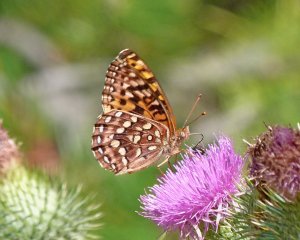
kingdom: Animalia
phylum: Arthropoda
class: Insecta
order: Lepidoptera
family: Nymphalidae
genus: Speyeria
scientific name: Speyeria zerene
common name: Zerene Fritillary
